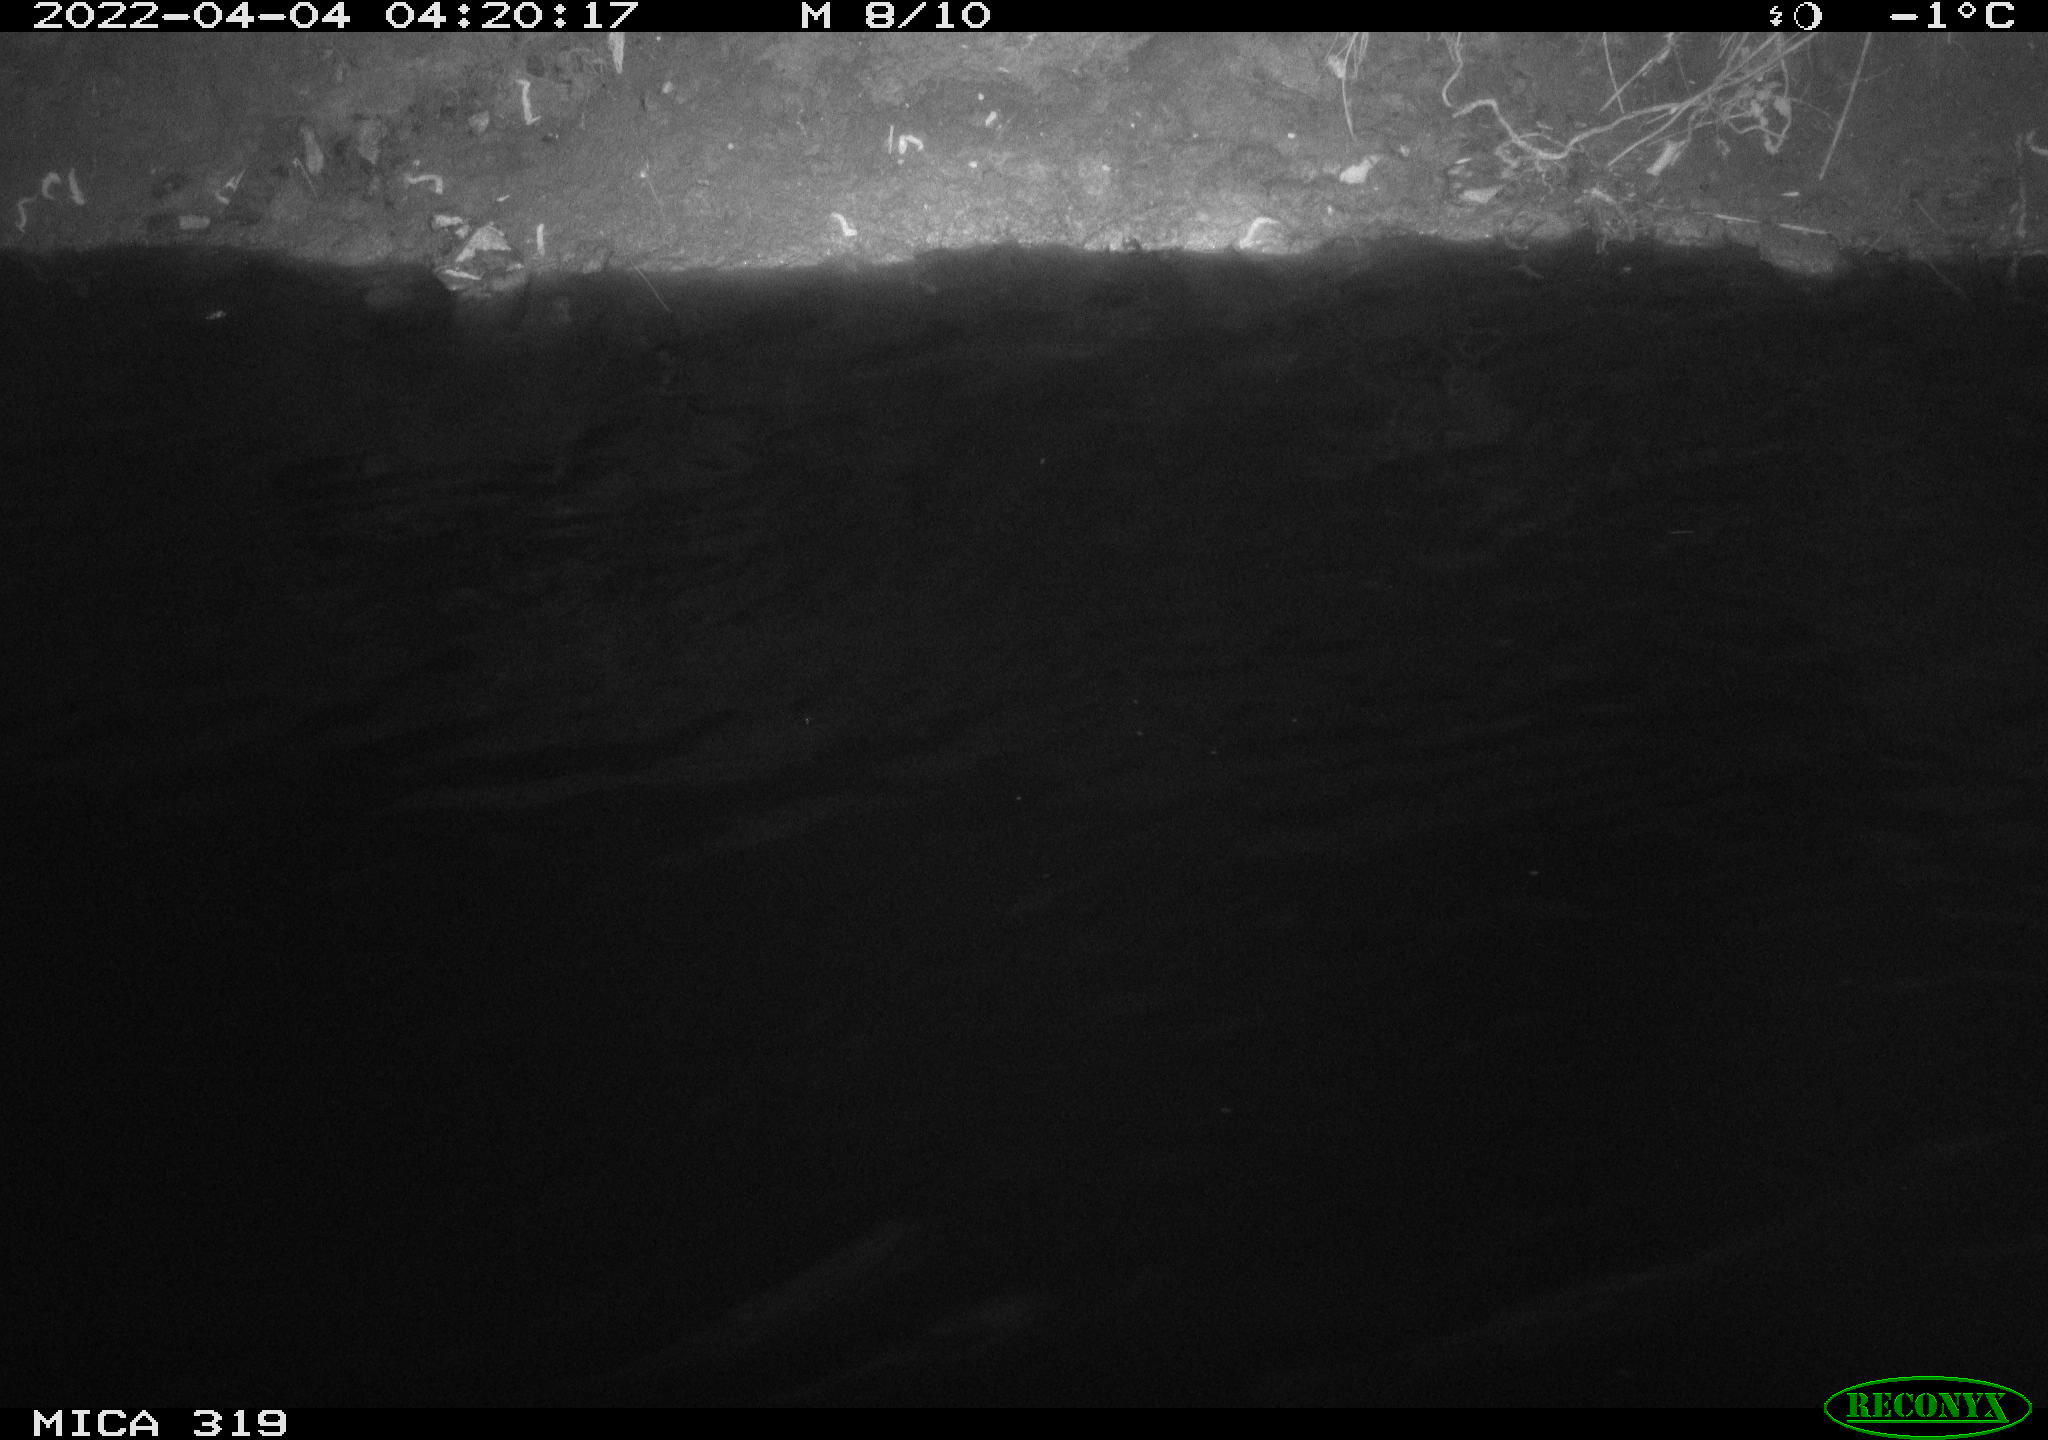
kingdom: Animalia
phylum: Chordata
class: Aves
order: Anseriformes
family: Anatidae
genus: Anas
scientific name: Anas platyrhynchos
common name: Mallard
